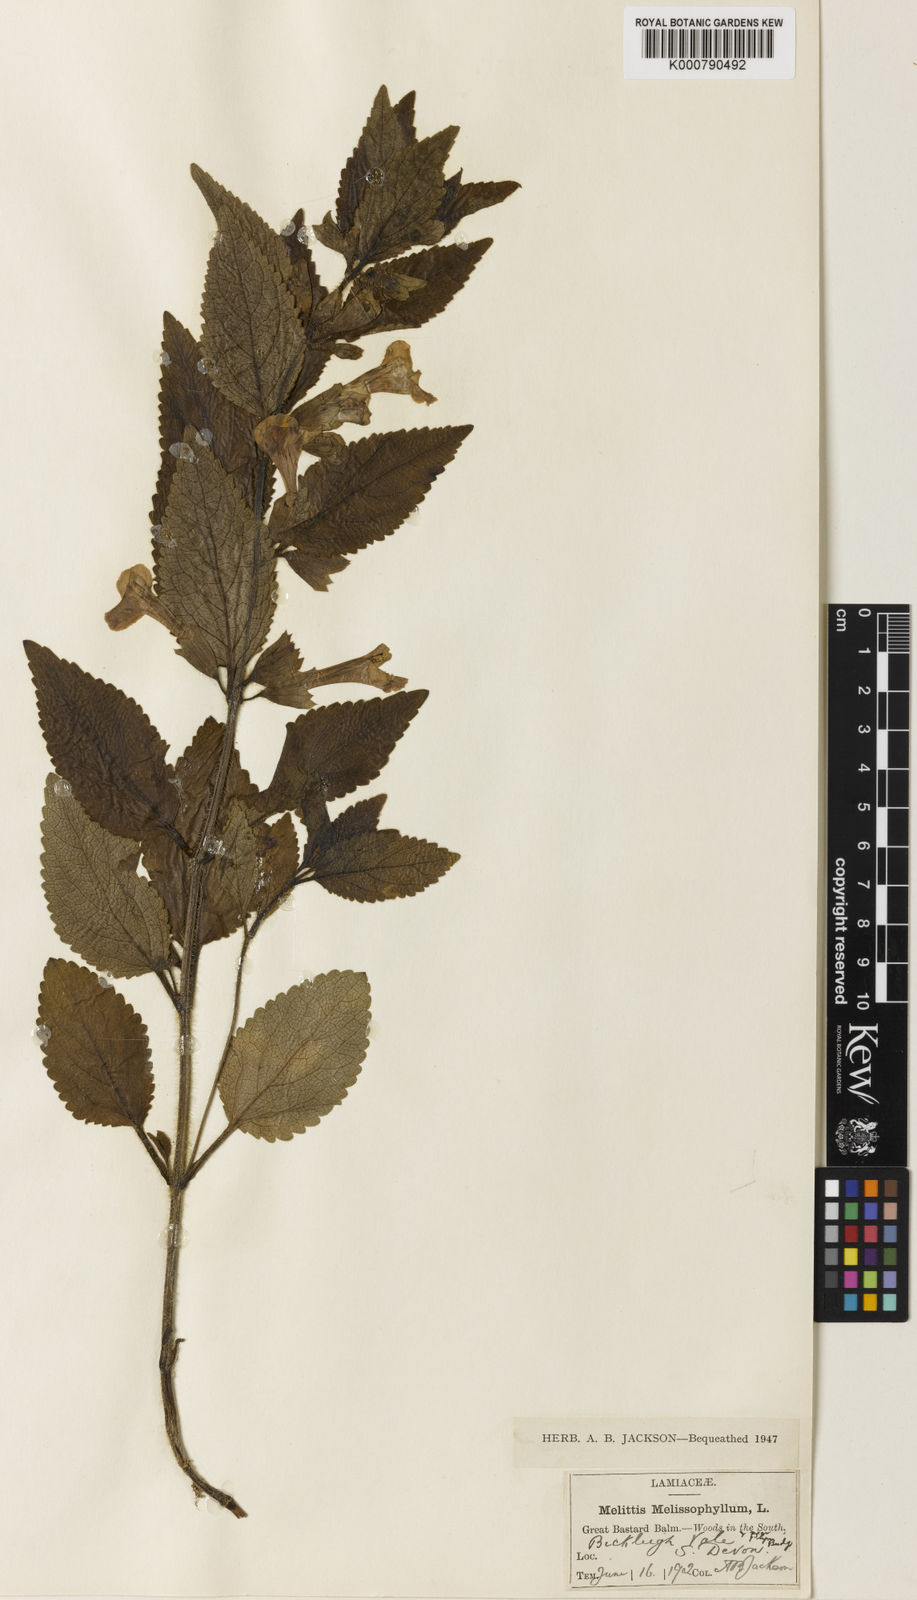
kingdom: Plantae
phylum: Tracheophyta
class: Magnoliopsida
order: Lamiales
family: Lamiaceae
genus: Melittis
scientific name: Melittis melissophyllum
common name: Bastard balm
